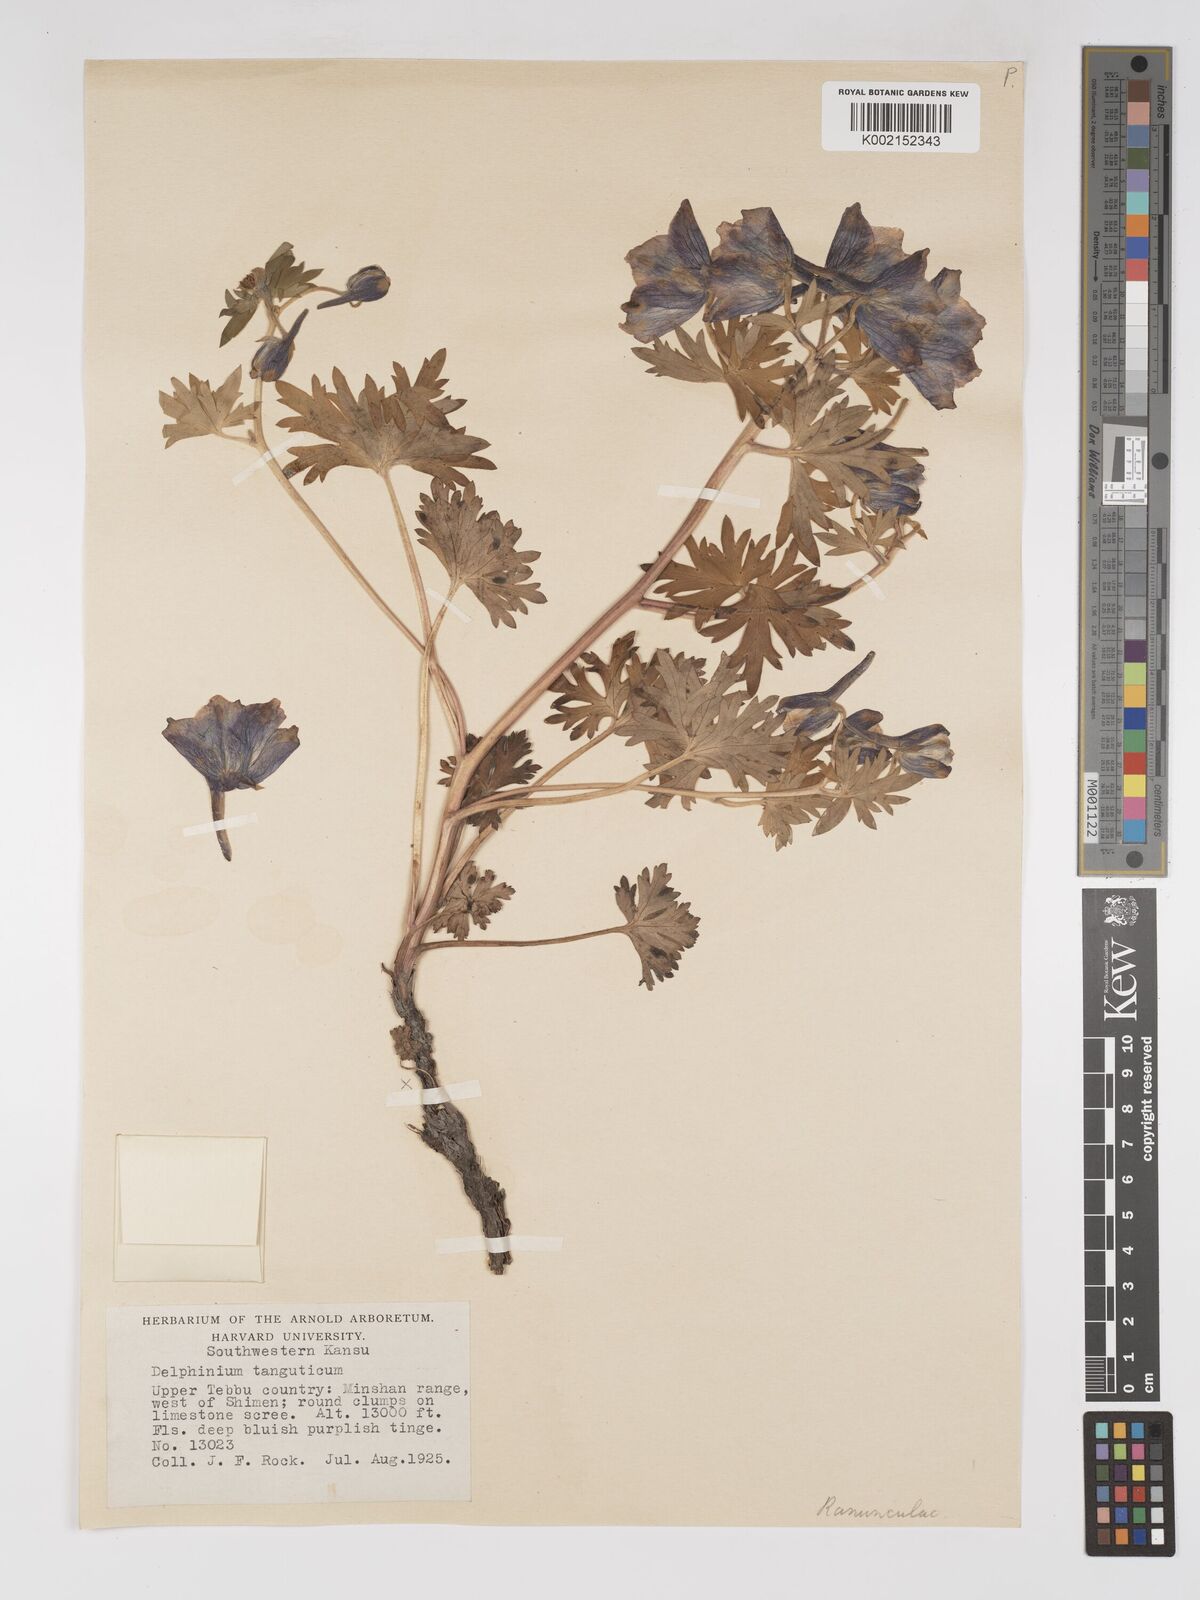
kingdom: Plantae
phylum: Tracheophyta
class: Magnoliopsida
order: Ranunculales
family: Ranunculaceae
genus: Delphinium
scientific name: Delphinium pylzowii
